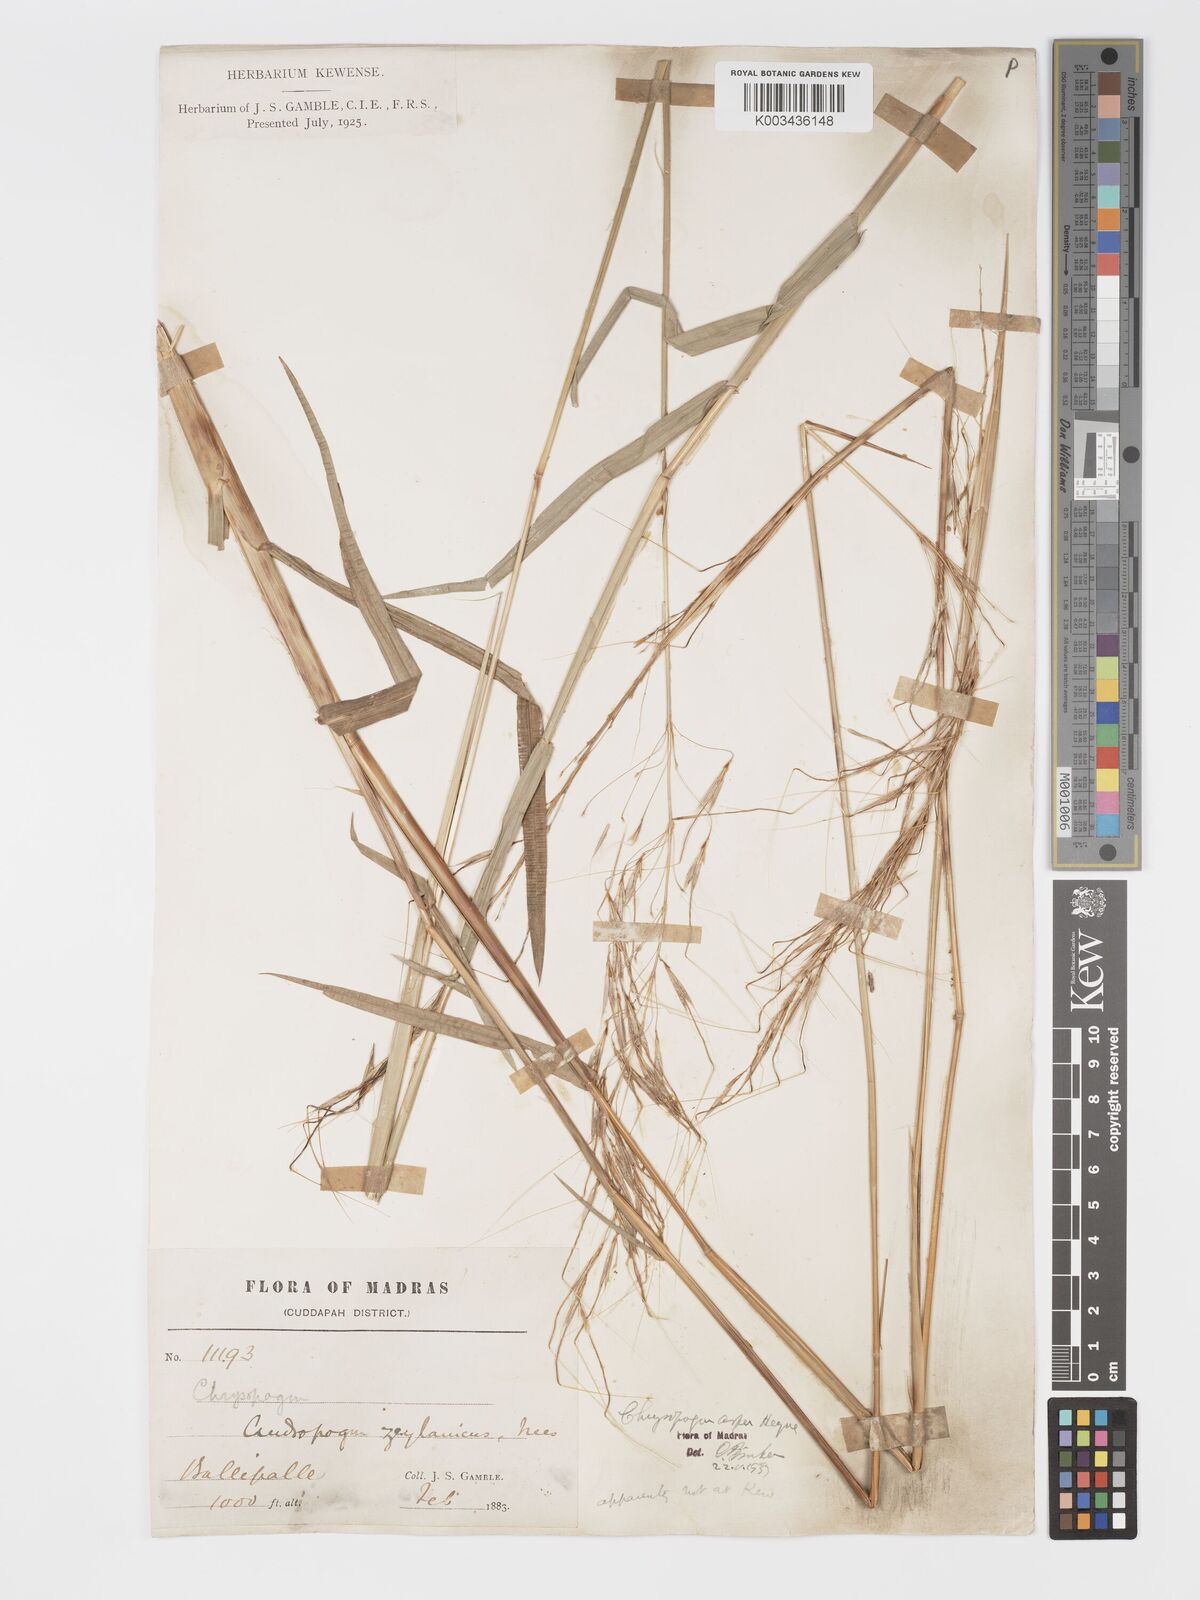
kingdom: Plantae
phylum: Tracheophyta
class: Liliopsida
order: Poales
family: Poaceae
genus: Chrysopogon
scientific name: Chrysopogon asper
